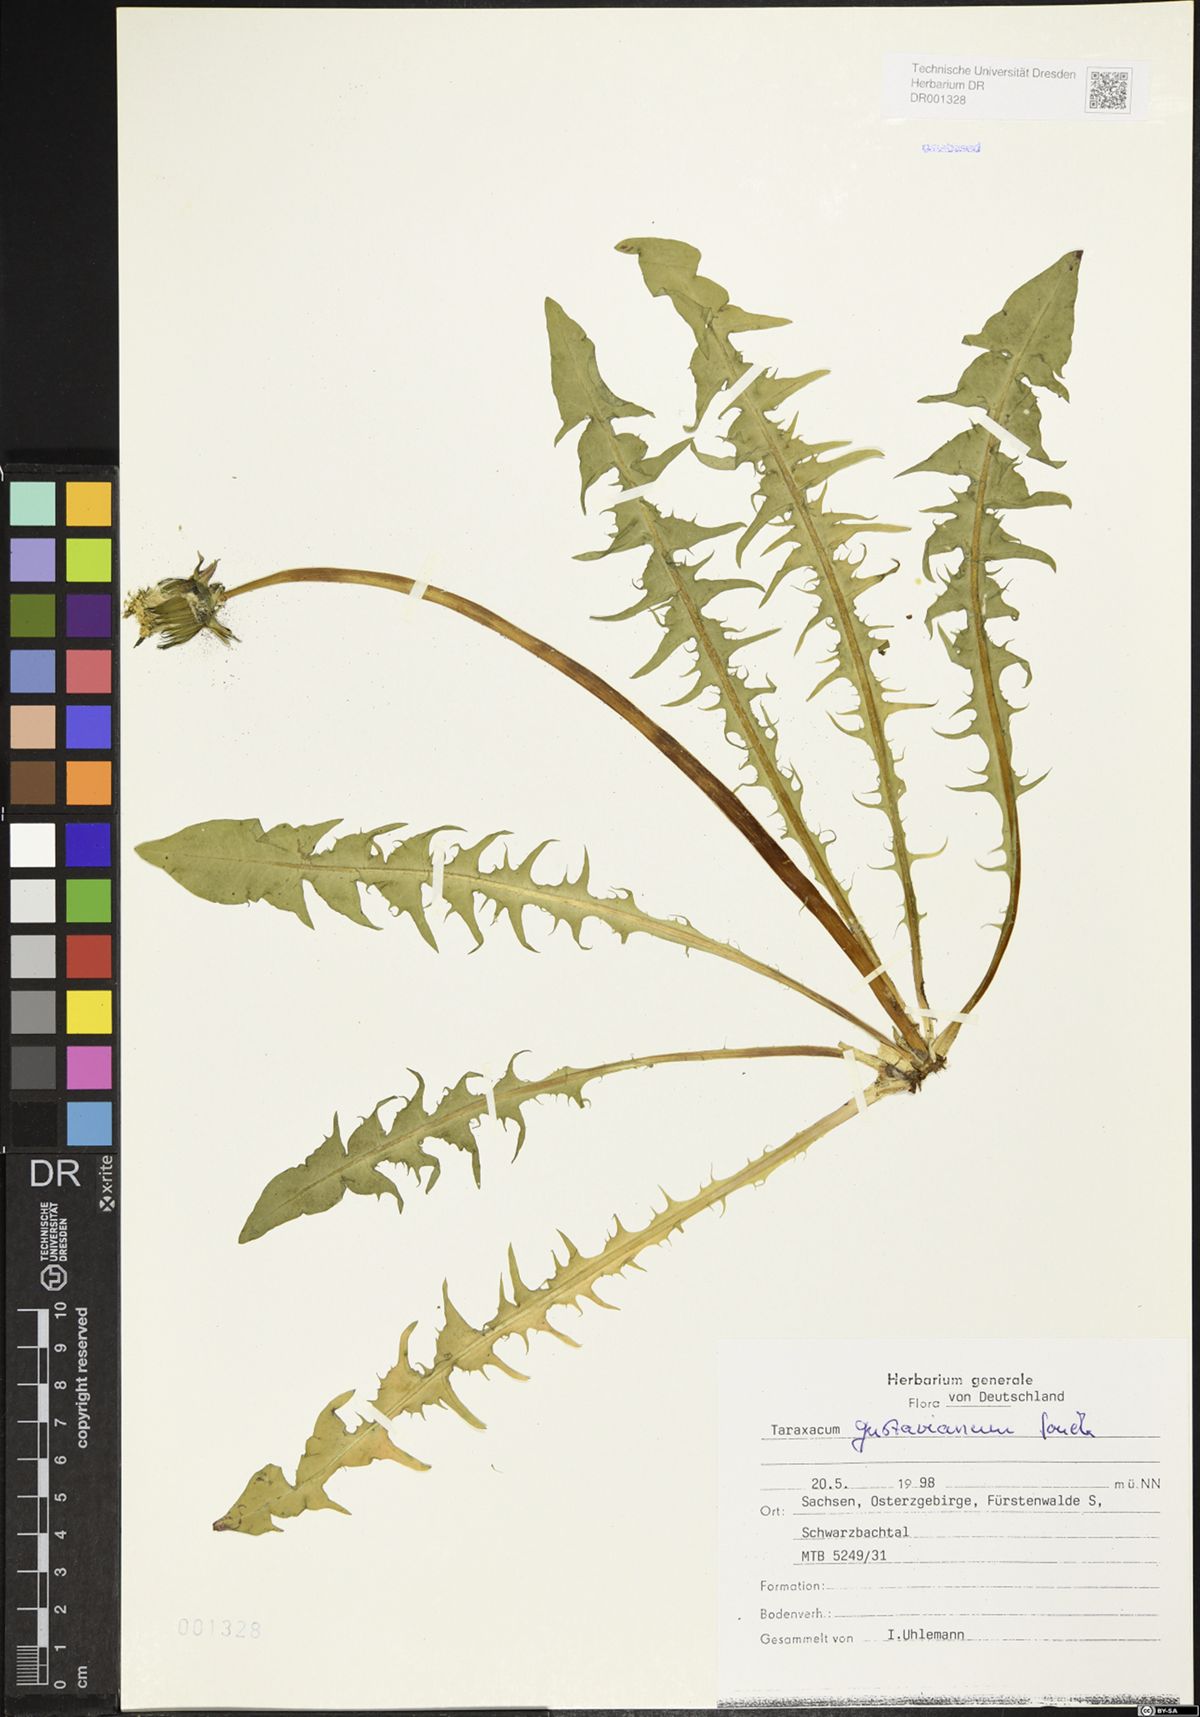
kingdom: Plantae
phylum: Tracheophyta
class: Magnoliopsida
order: Asterales
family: Asteraceae
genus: Taraxacum
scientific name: Taraxacum gustavianum
